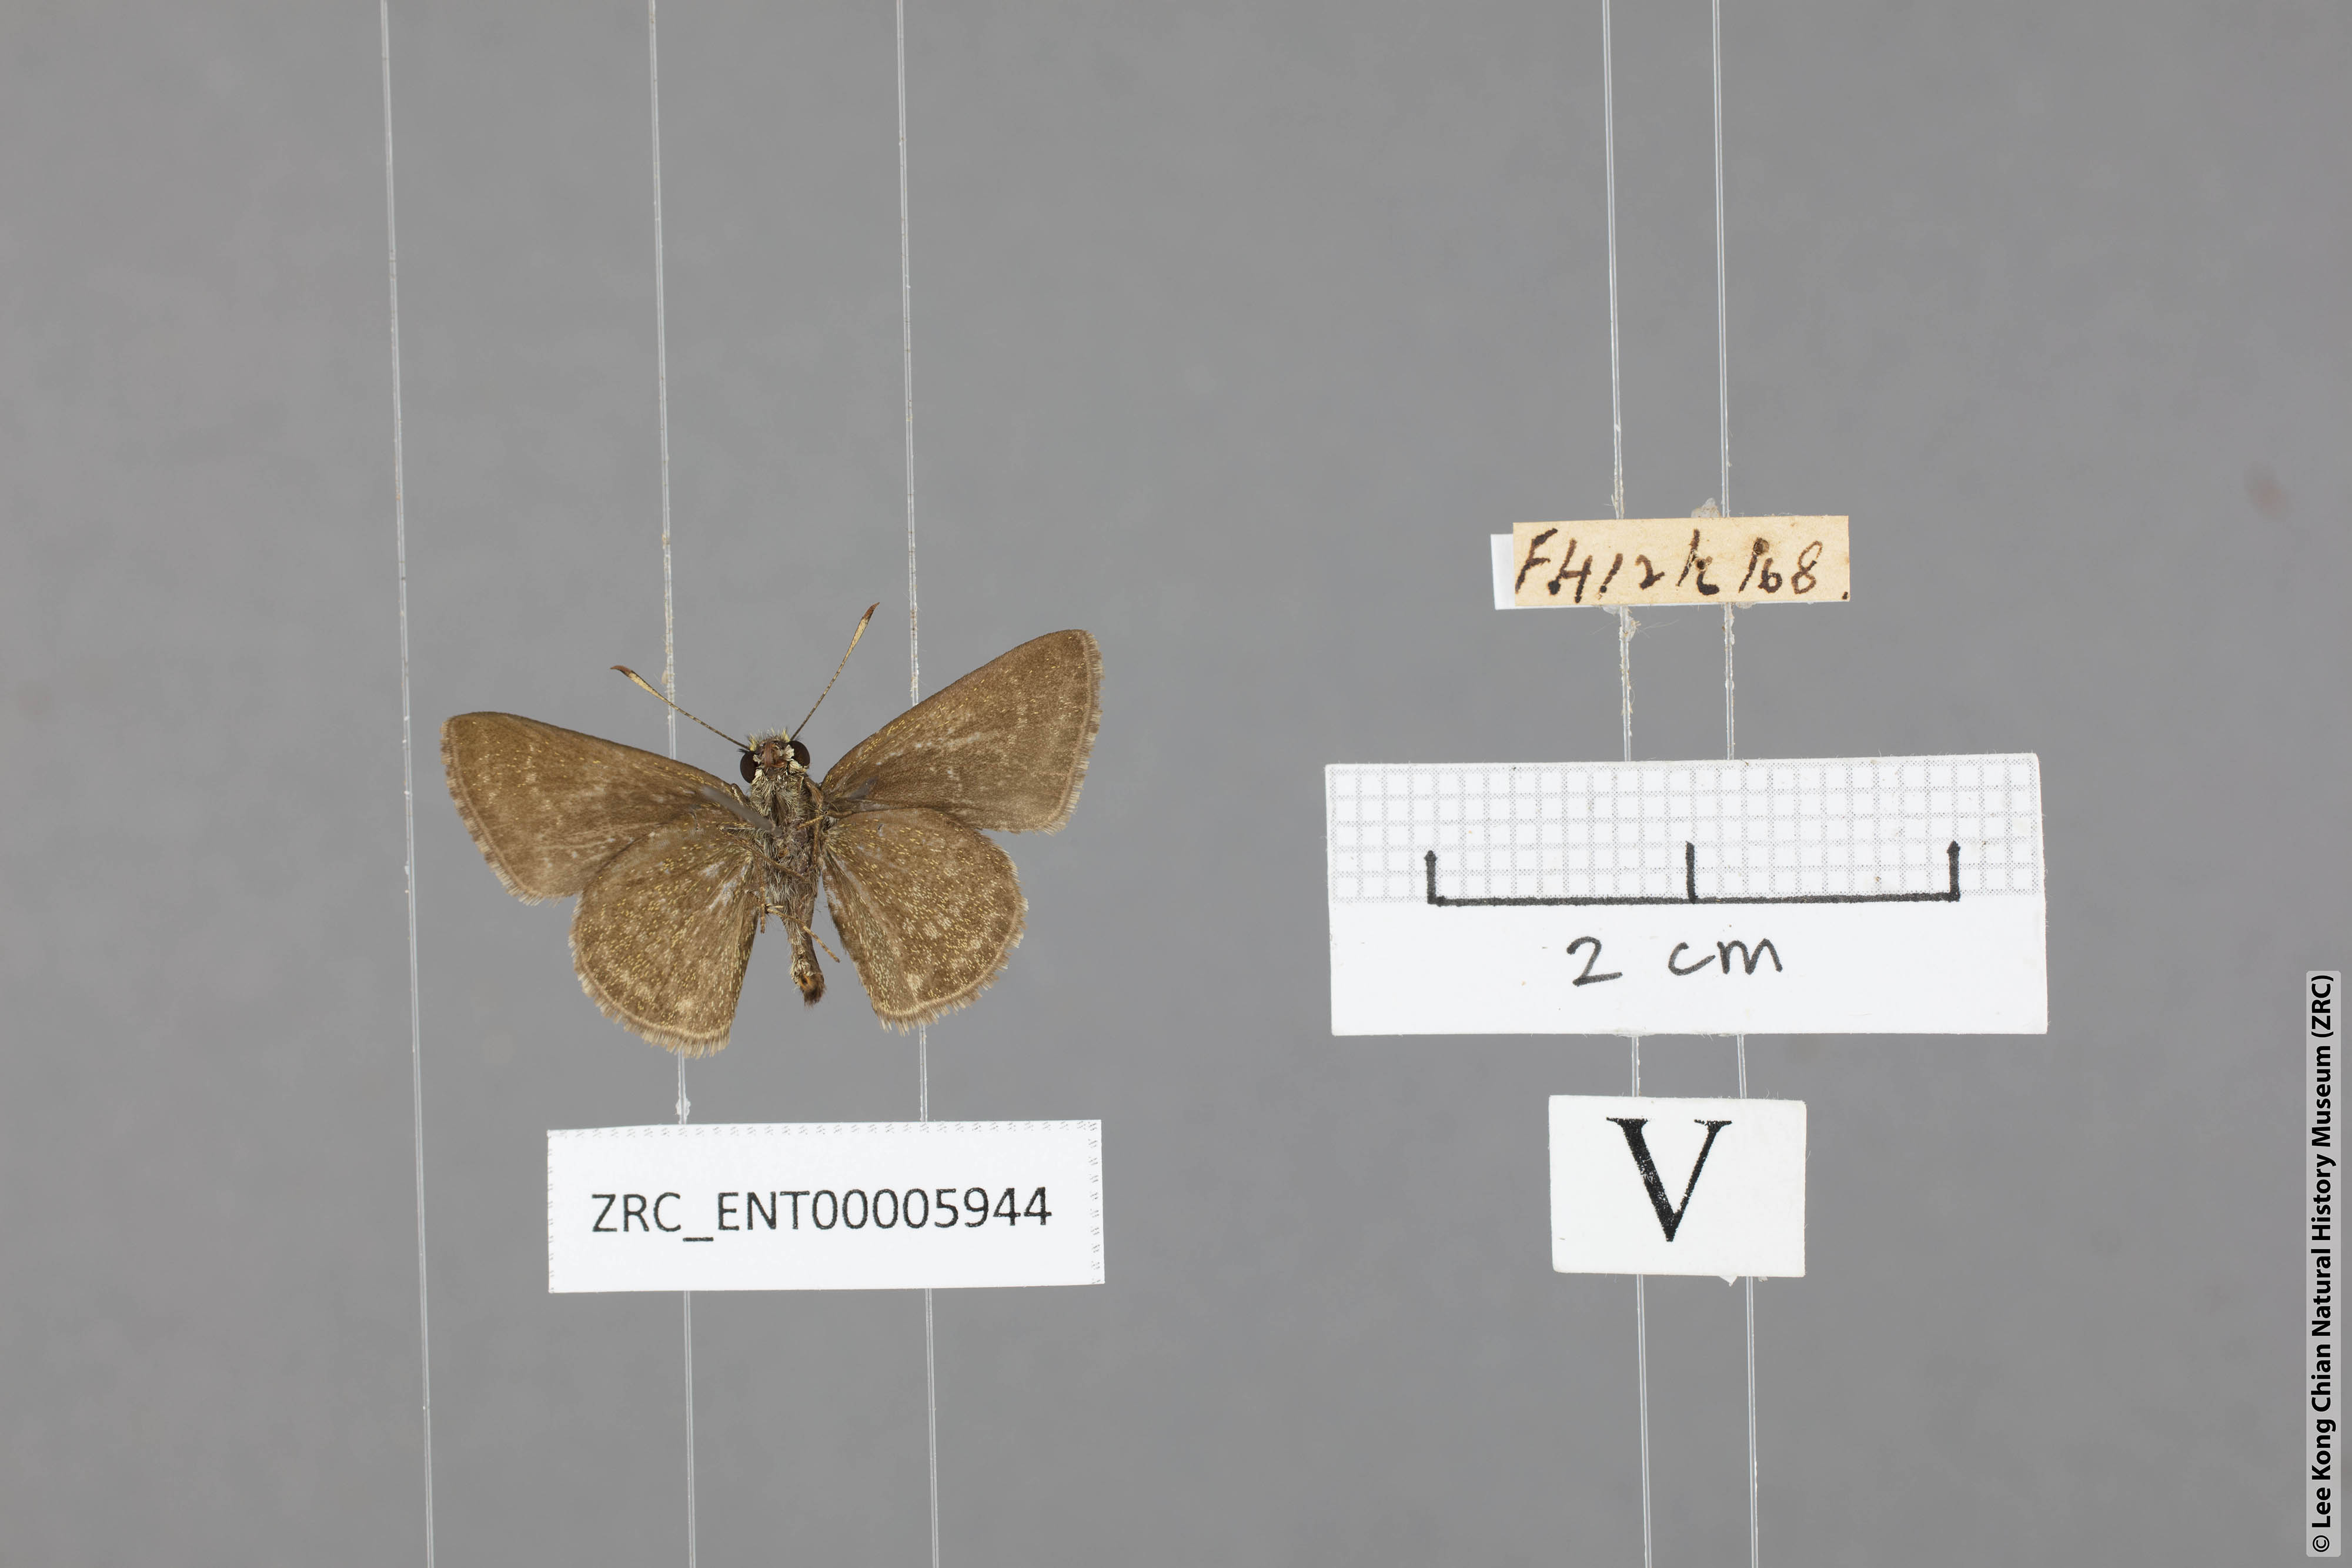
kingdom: Animalia
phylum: Arthropoda
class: Insecta
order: Lepidoptera
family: Hesperiidae
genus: Aeromachus
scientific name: Aeromachus jhora
